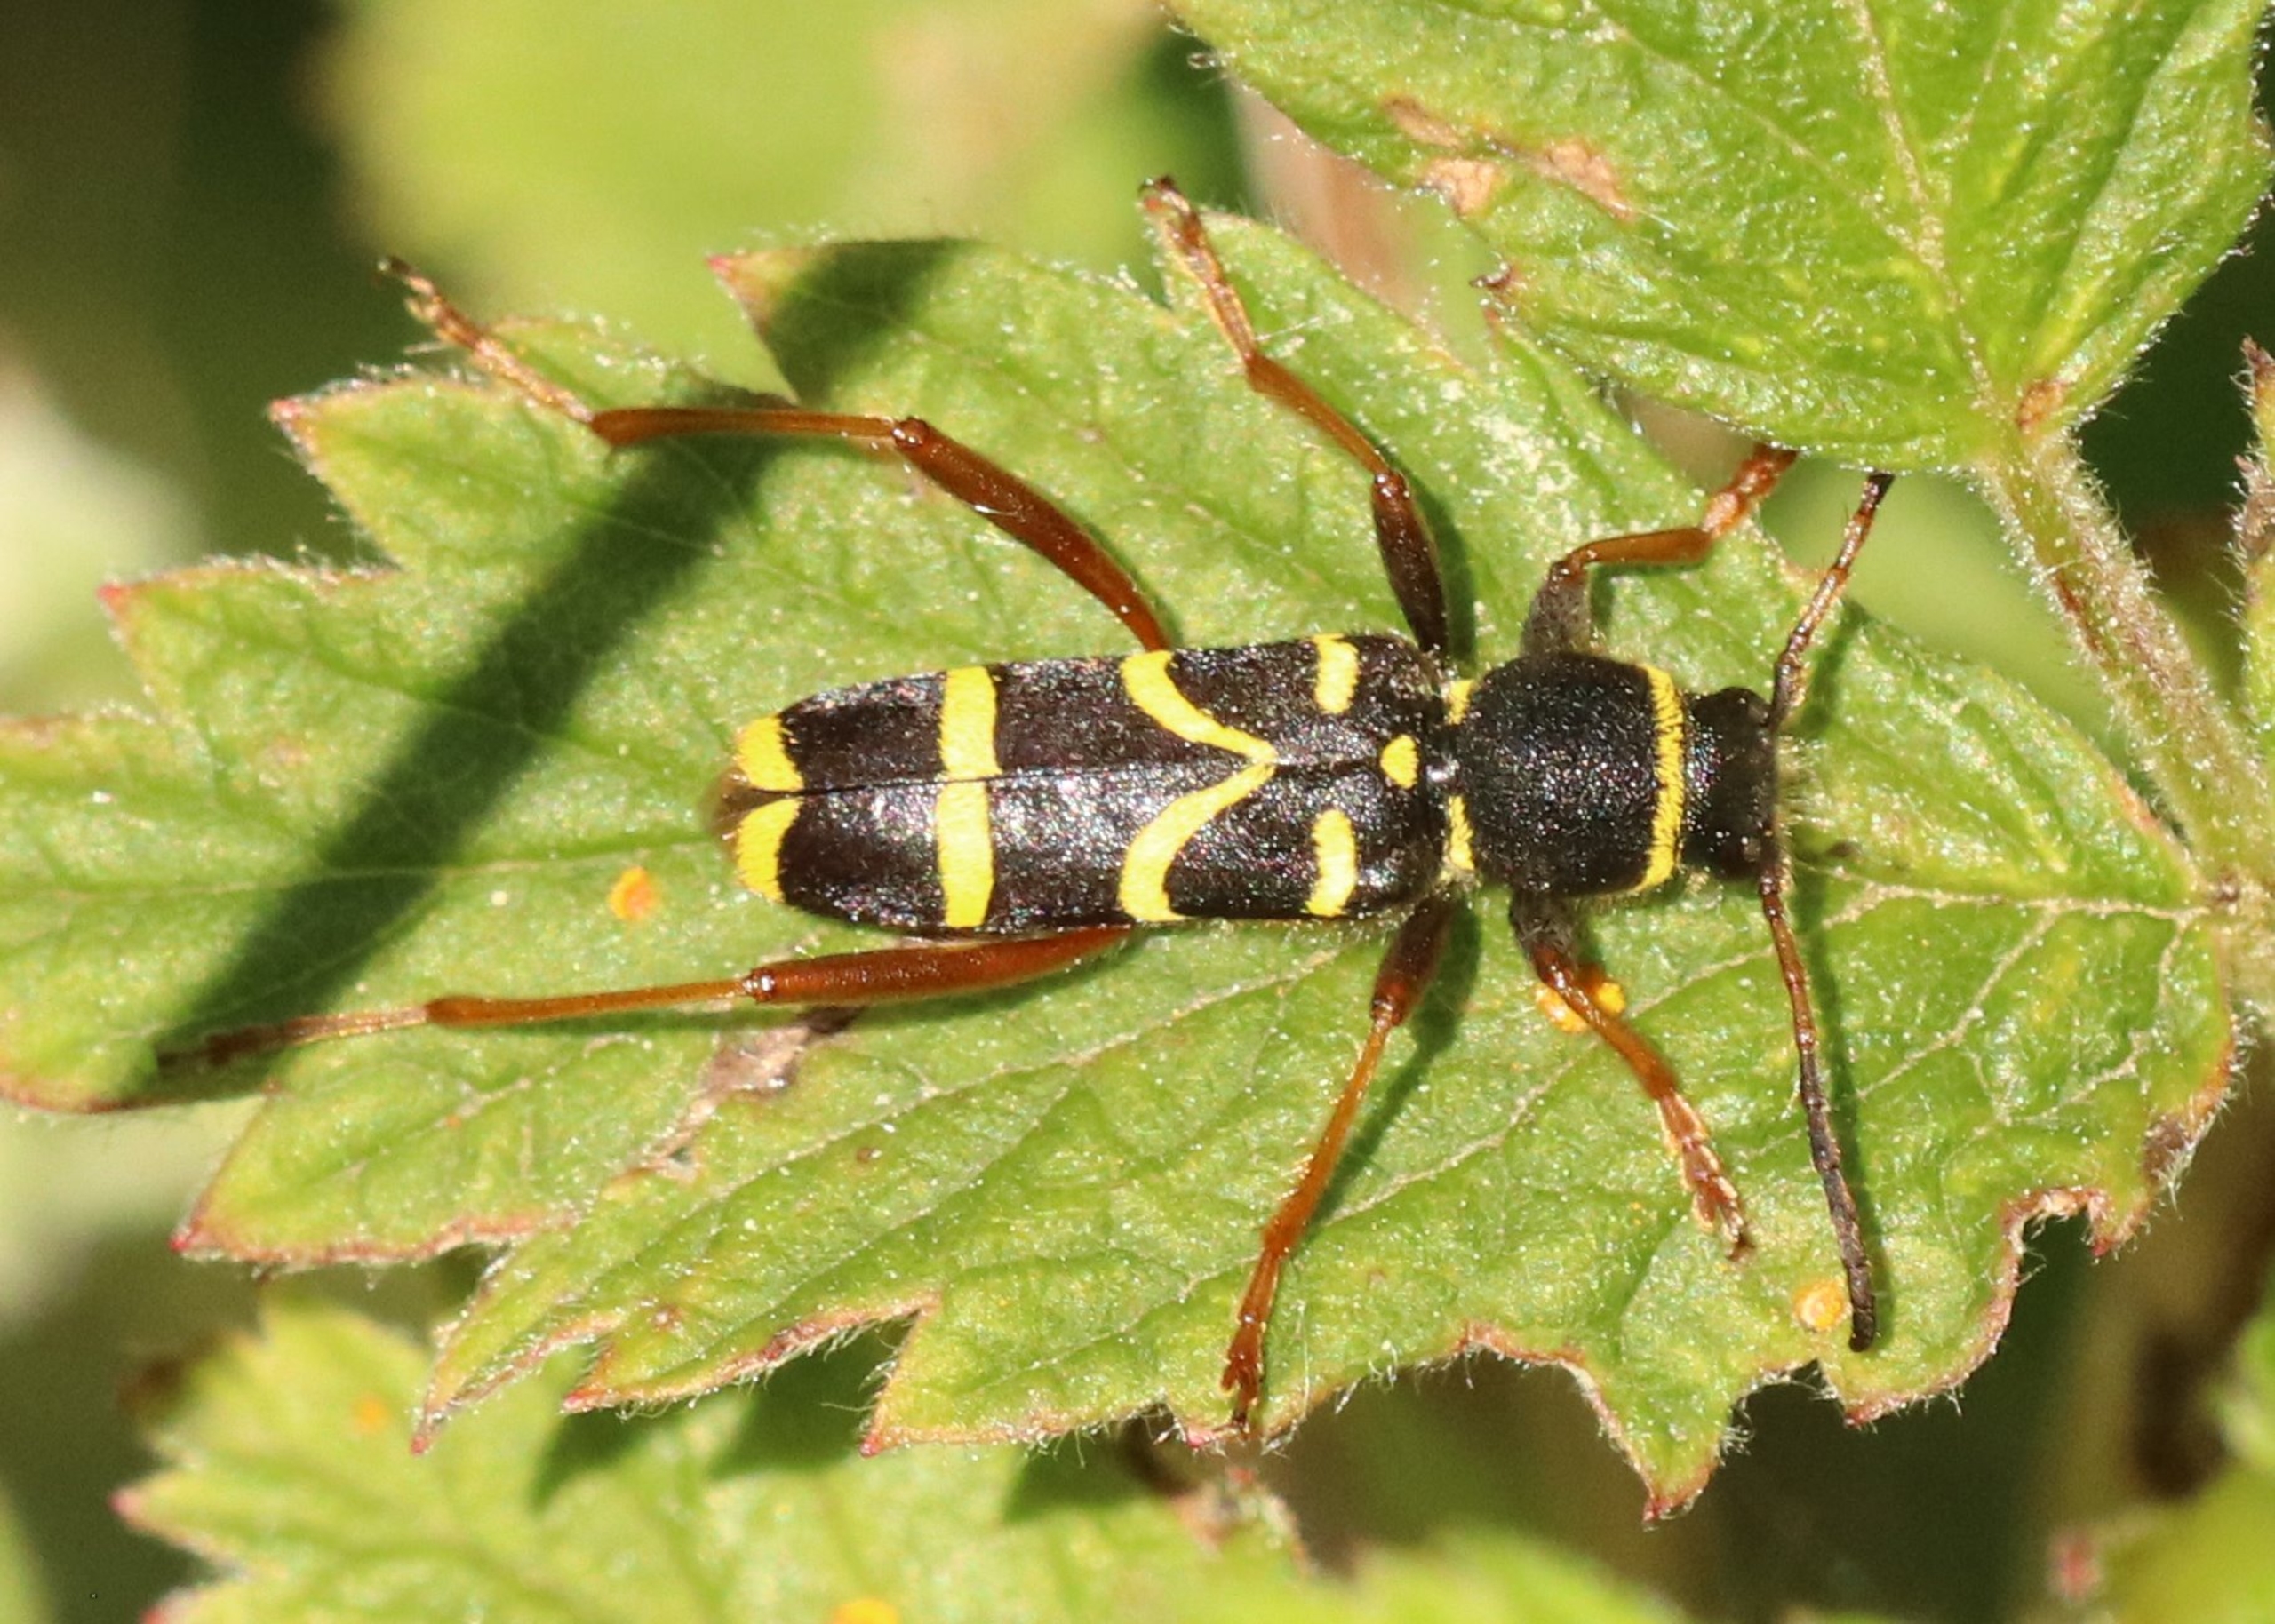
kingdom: Animalia
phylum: Arthropoda
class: Insecta
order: Coleoptera
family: Cerambycidae
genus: Clytus
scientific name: Clytus arietis
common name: Lille hvepsebuk
